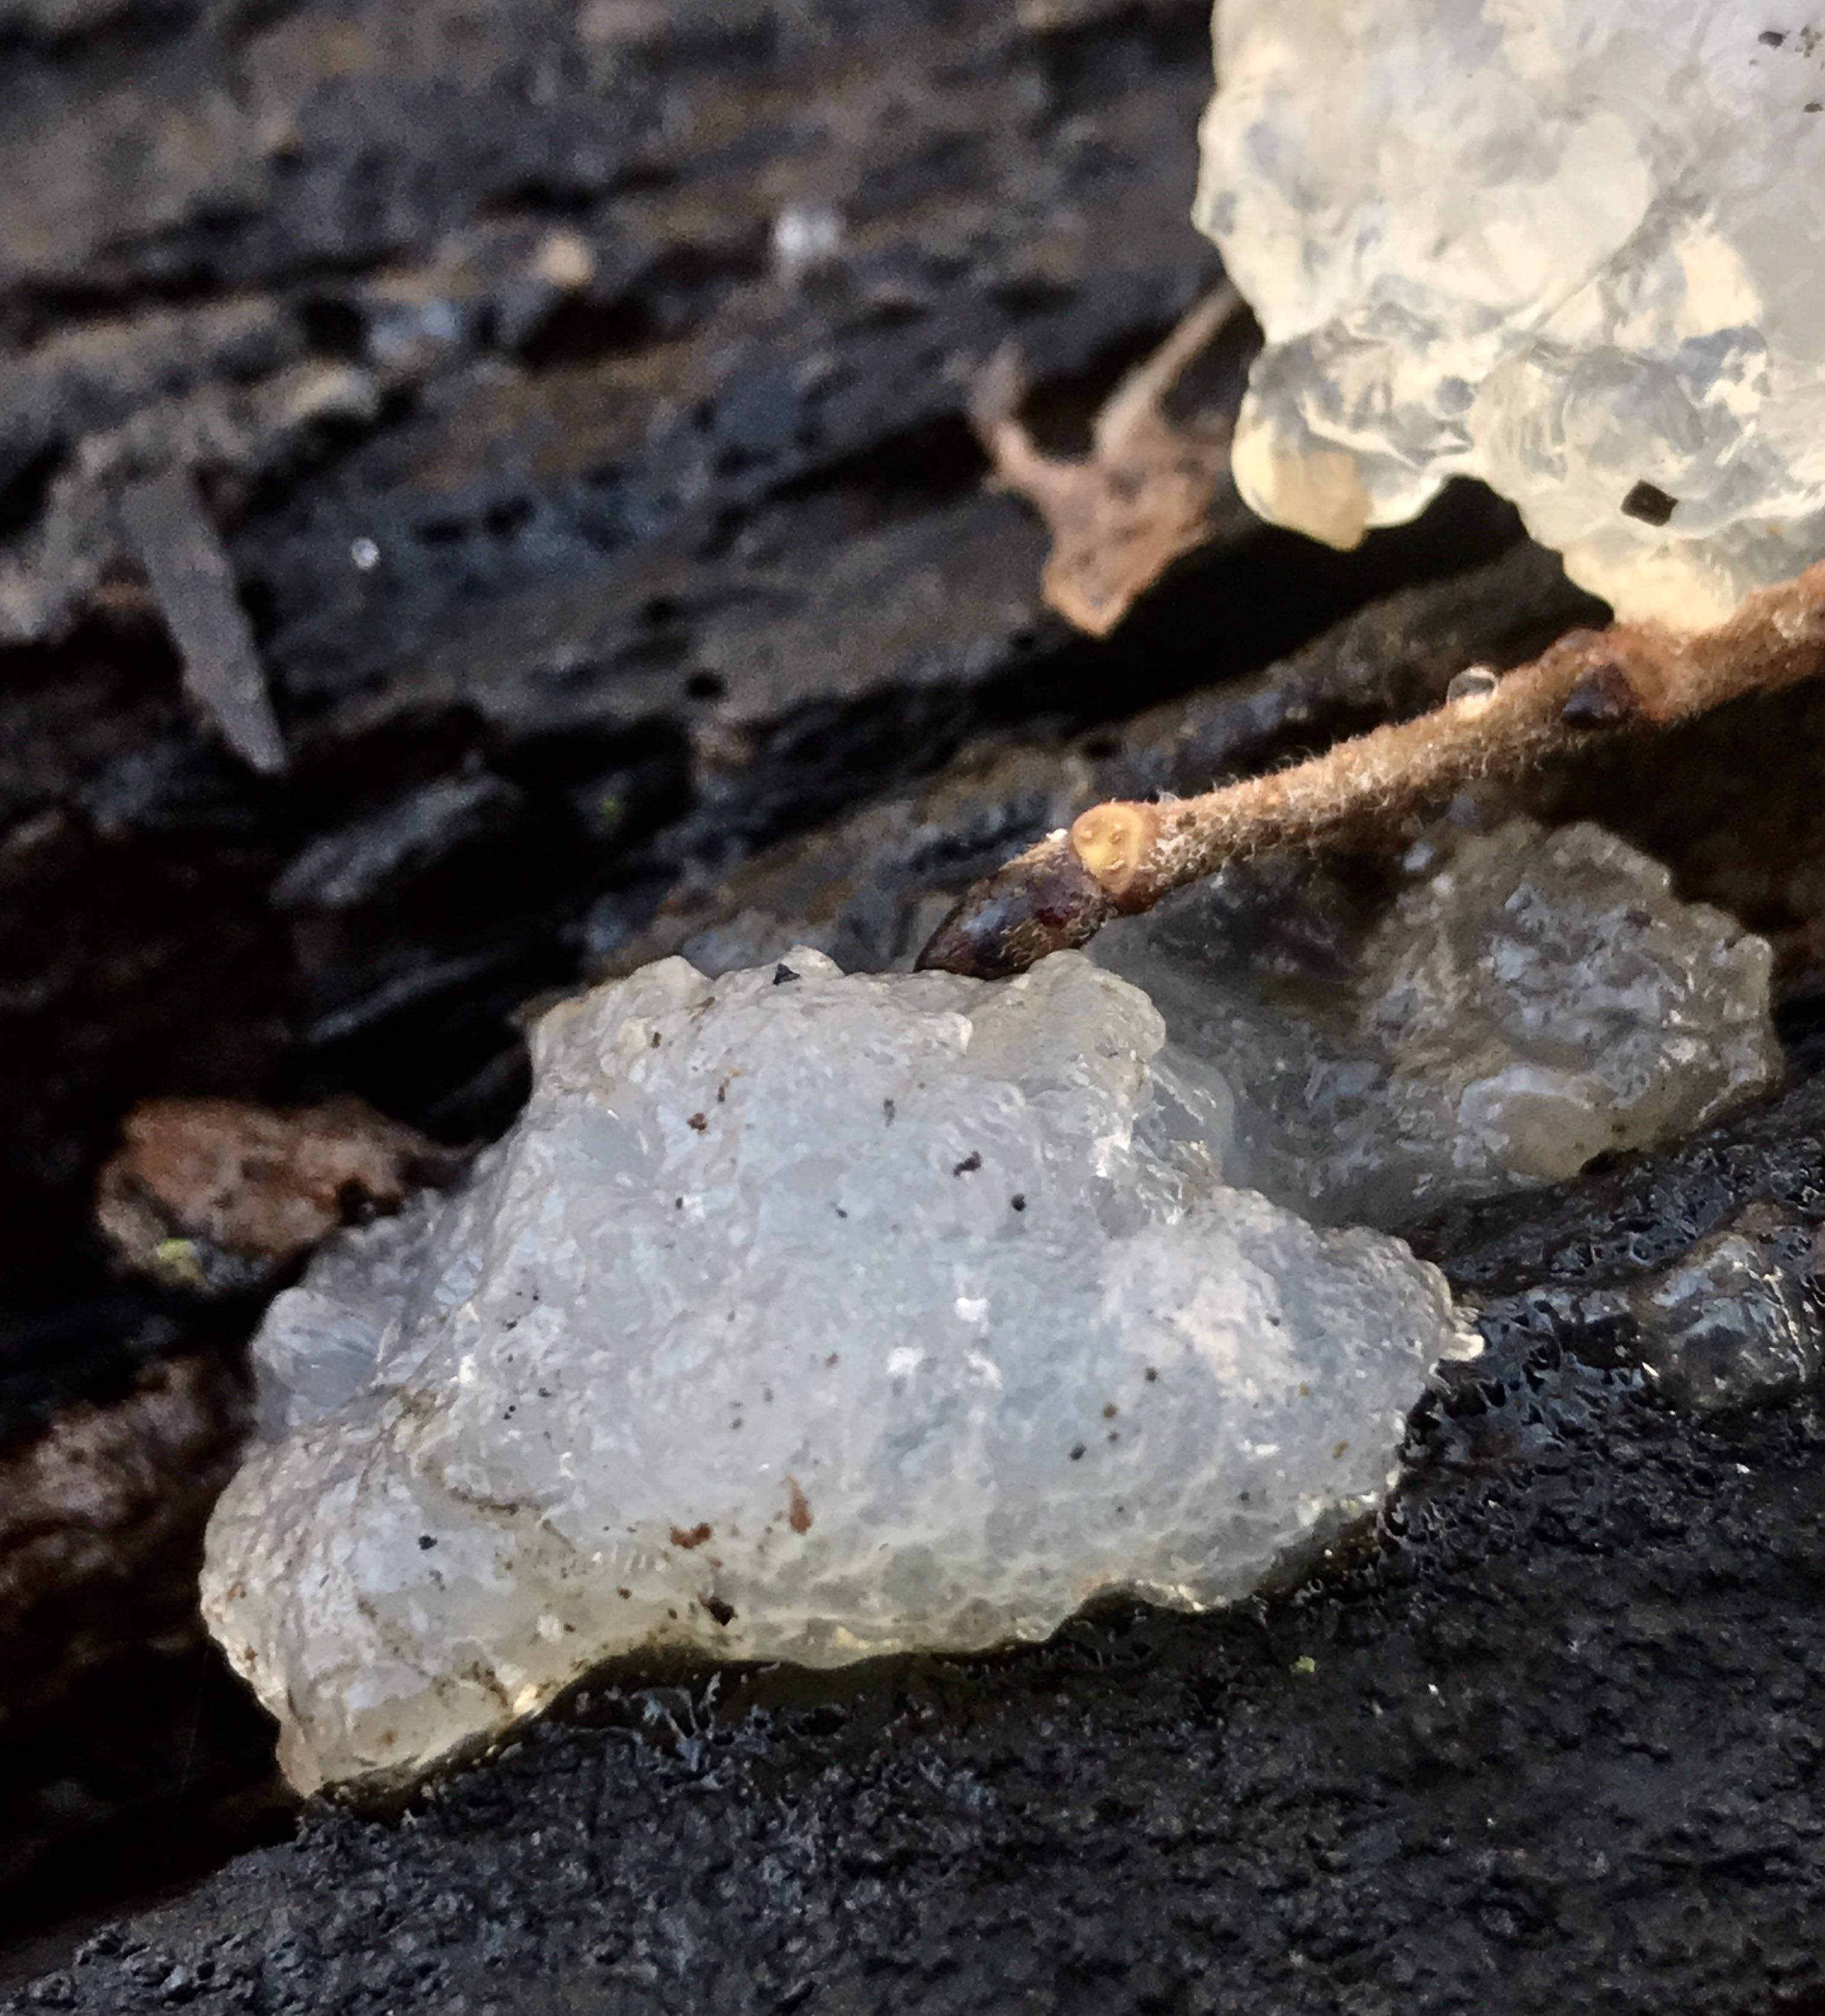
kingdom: Fungi
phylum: Basidiomycota
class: Agaricomycetes
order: Auriculariales
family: Hyaloriaceae
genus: Myxarium
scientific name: Myxarium nucleatum
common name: klar bævretop
